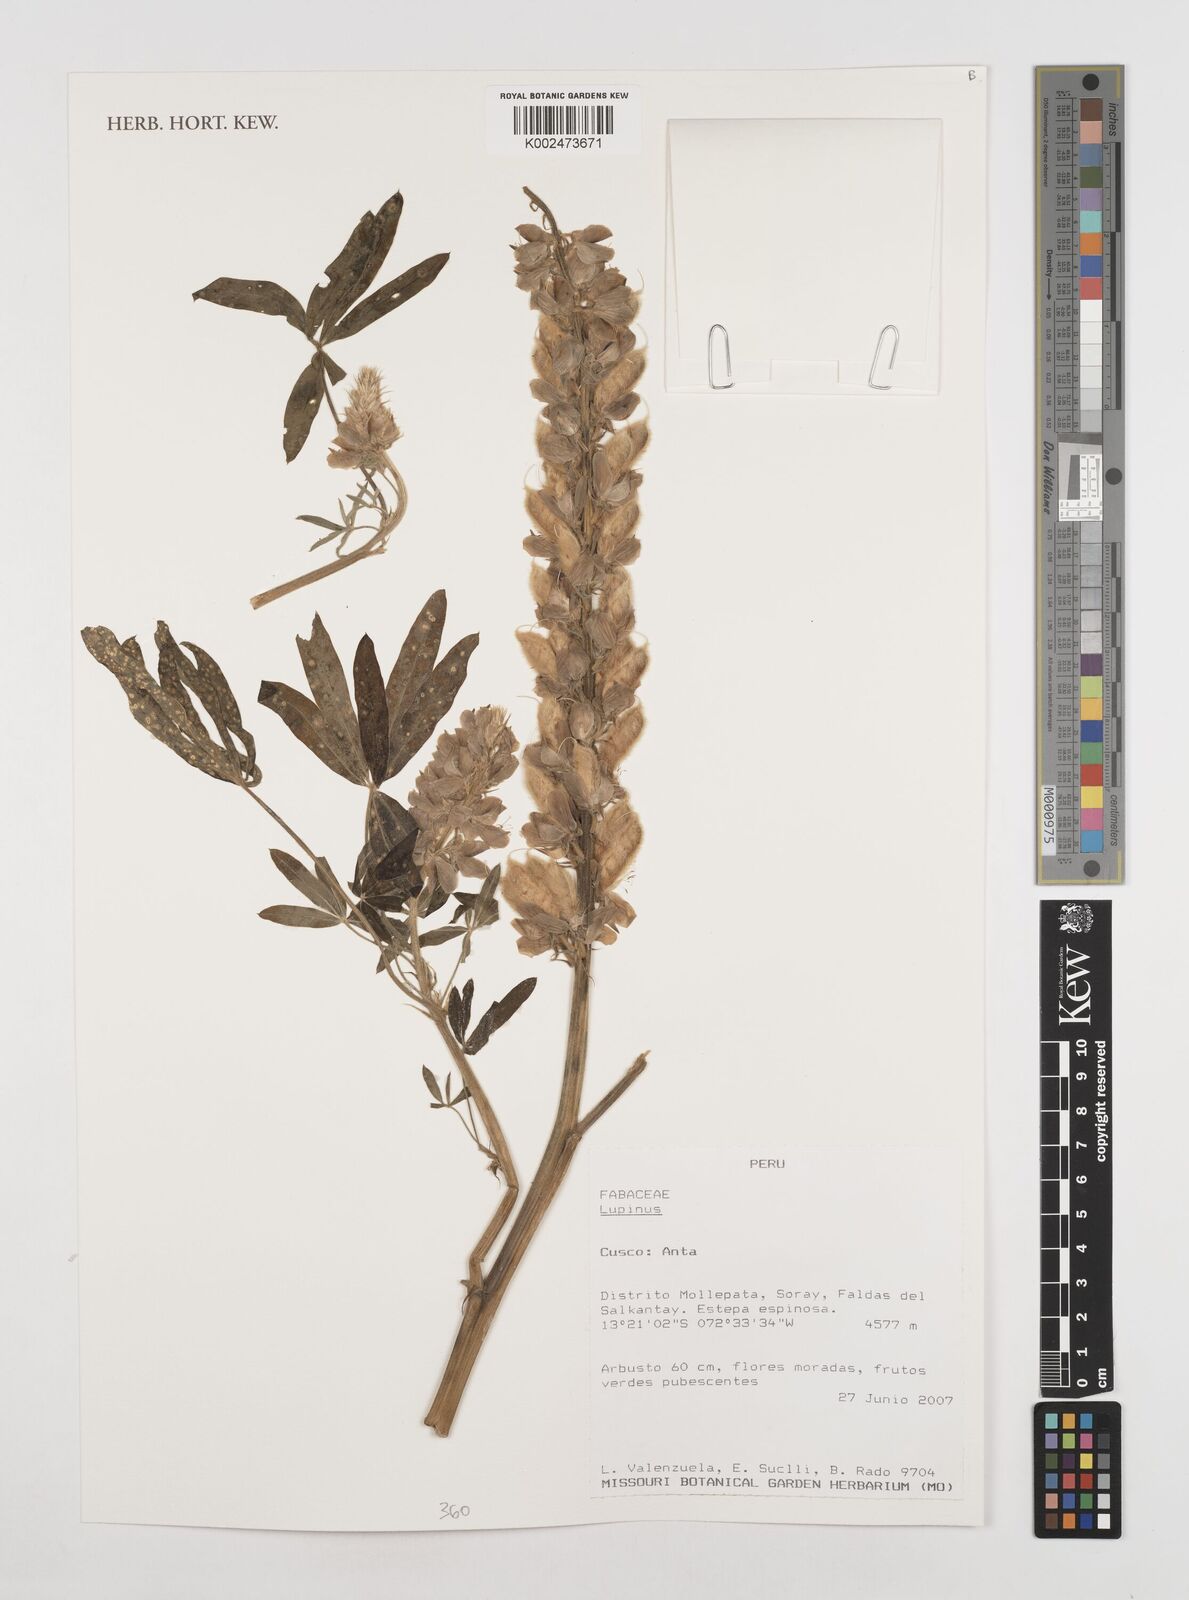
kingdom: Plantae
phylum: Tracheophyta
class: Magnoliopsida
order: Fabales
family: Fabaceae
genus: Lupinus
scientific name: Lupinus
